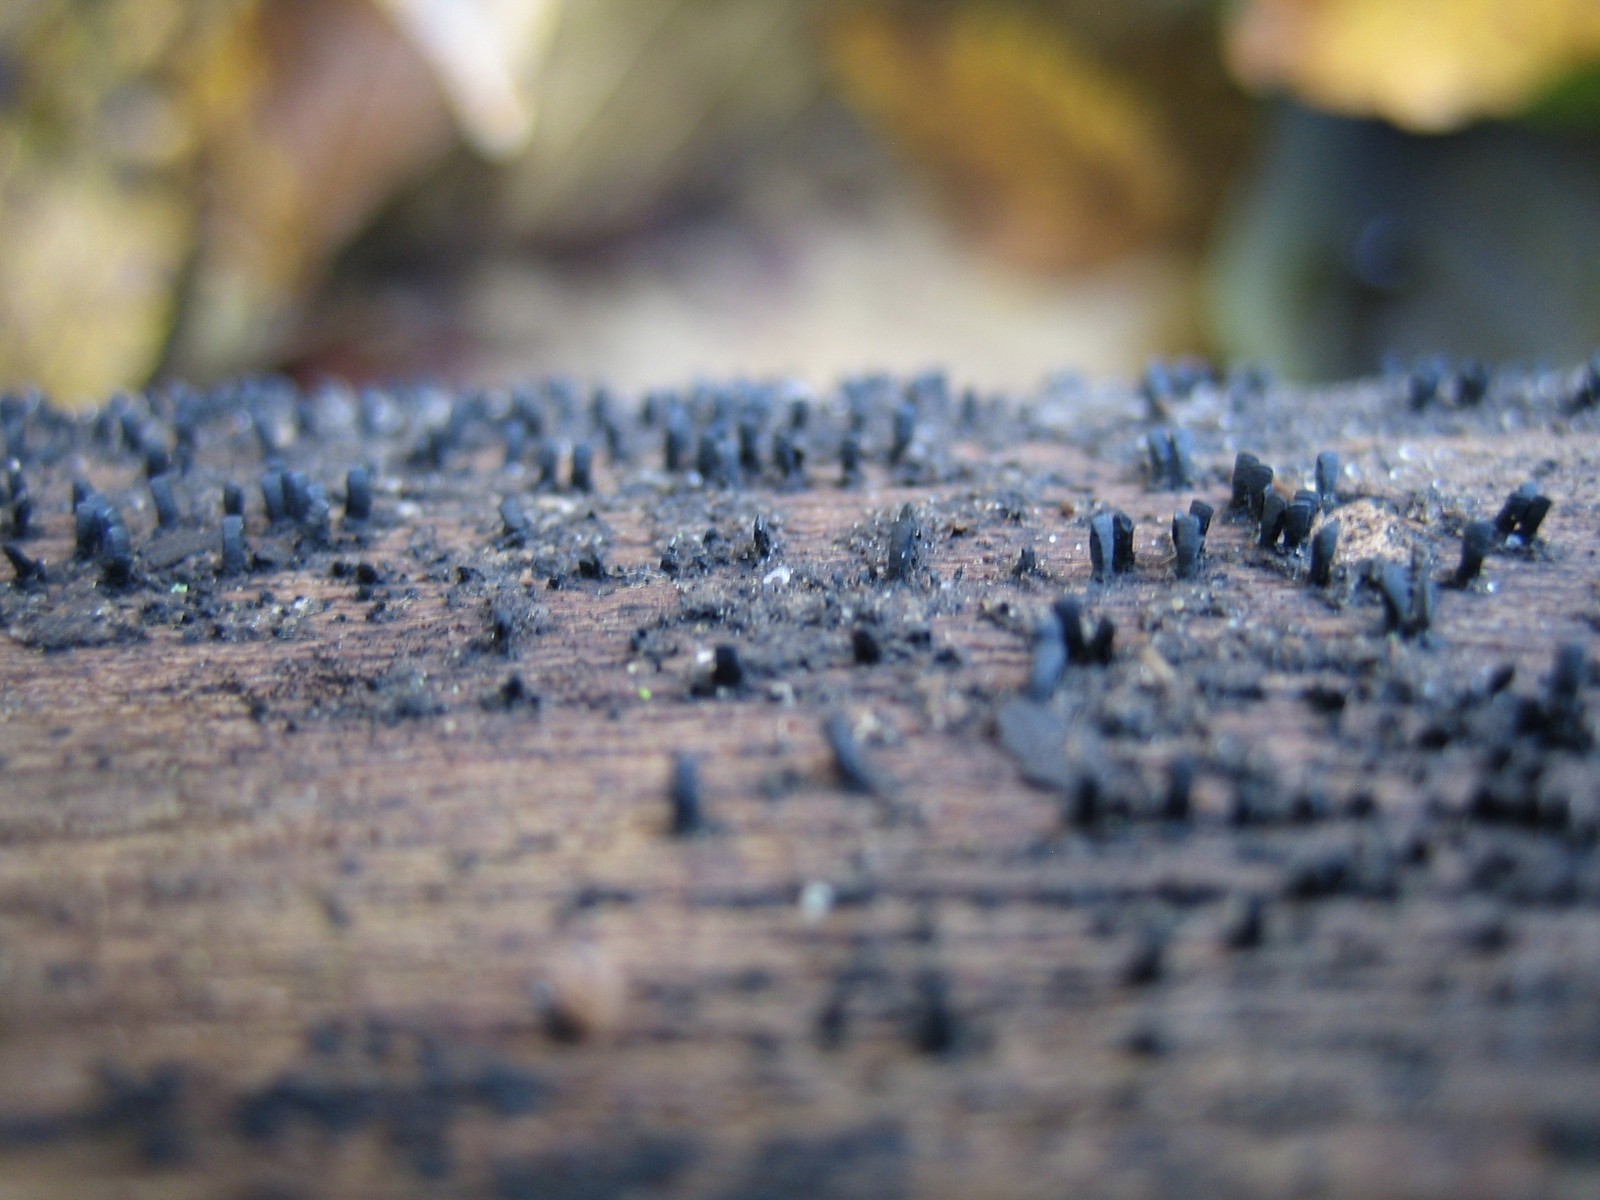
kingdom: Fungi
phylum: Ascomycota
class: Eurotiomycetes
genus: Glyphium
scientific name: Glyphium elatum
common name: kuløkse
